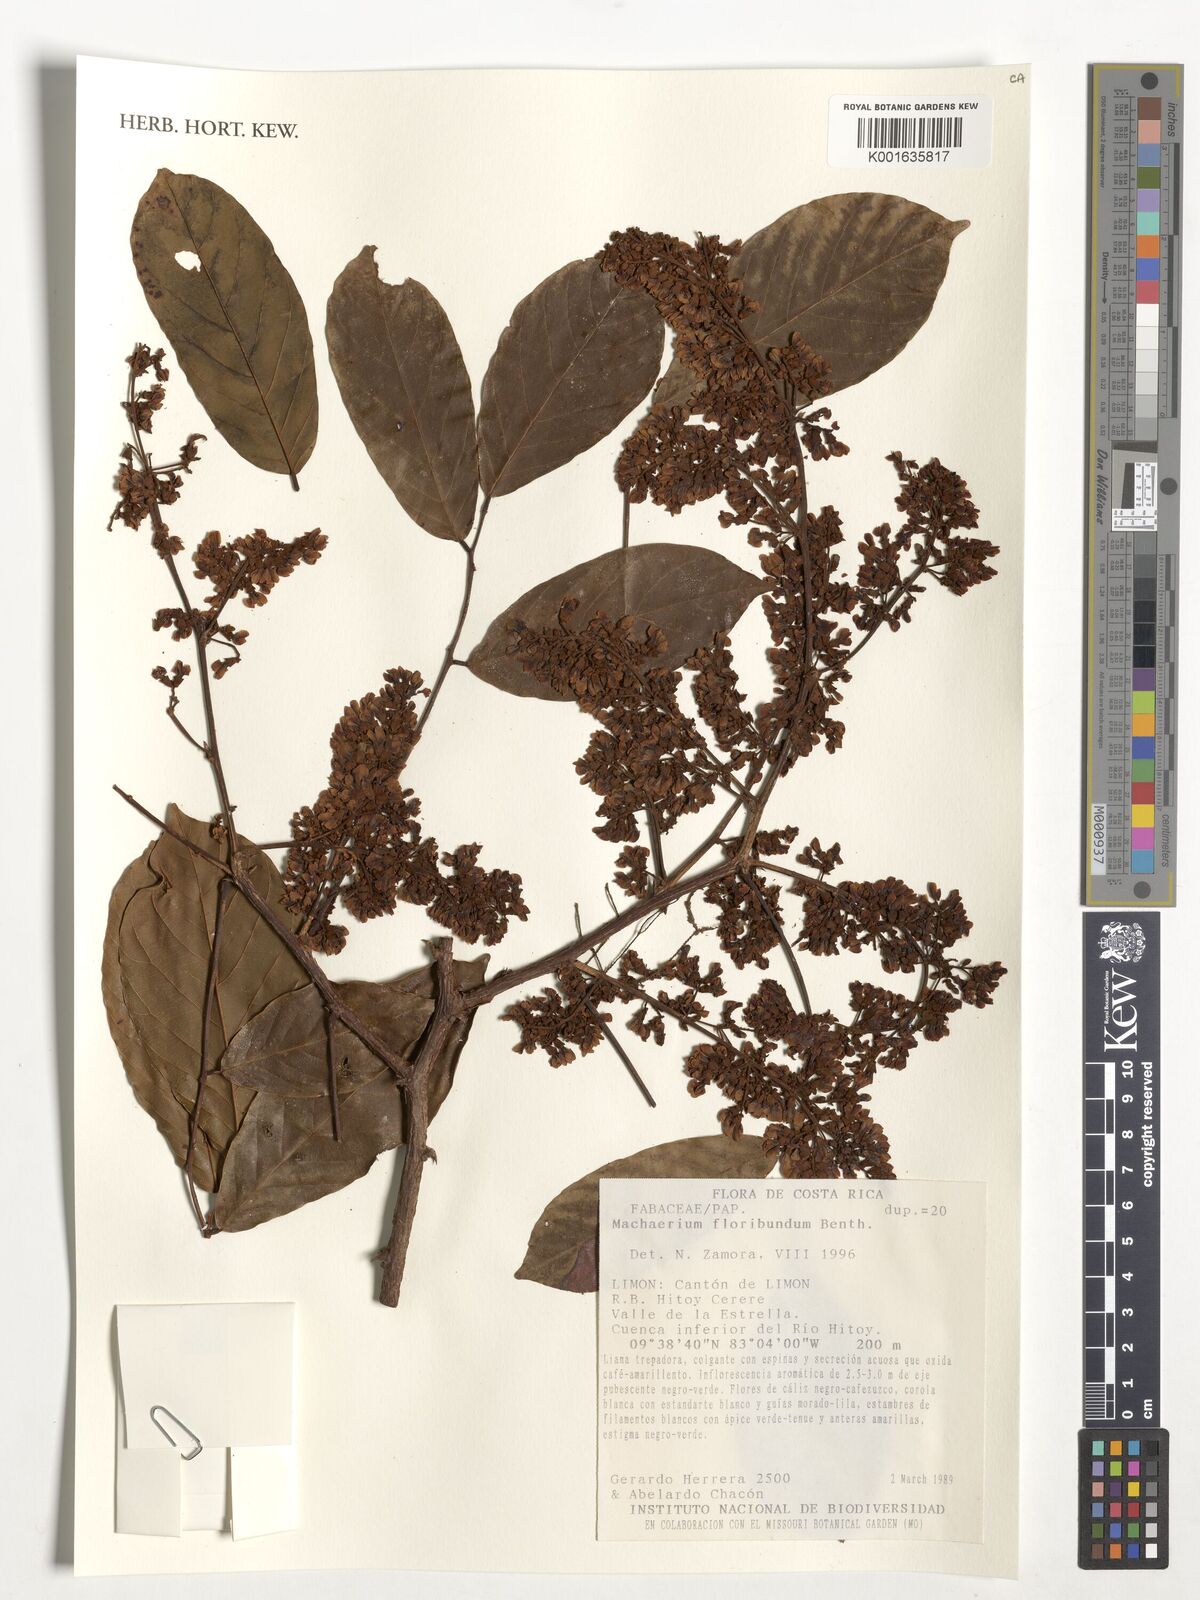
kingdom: Plantae
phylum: Tracheophyta
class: Magnoliopsida
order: Fabales
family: Fabaceae
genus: Machaerium
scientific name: Machaerium floribundum
